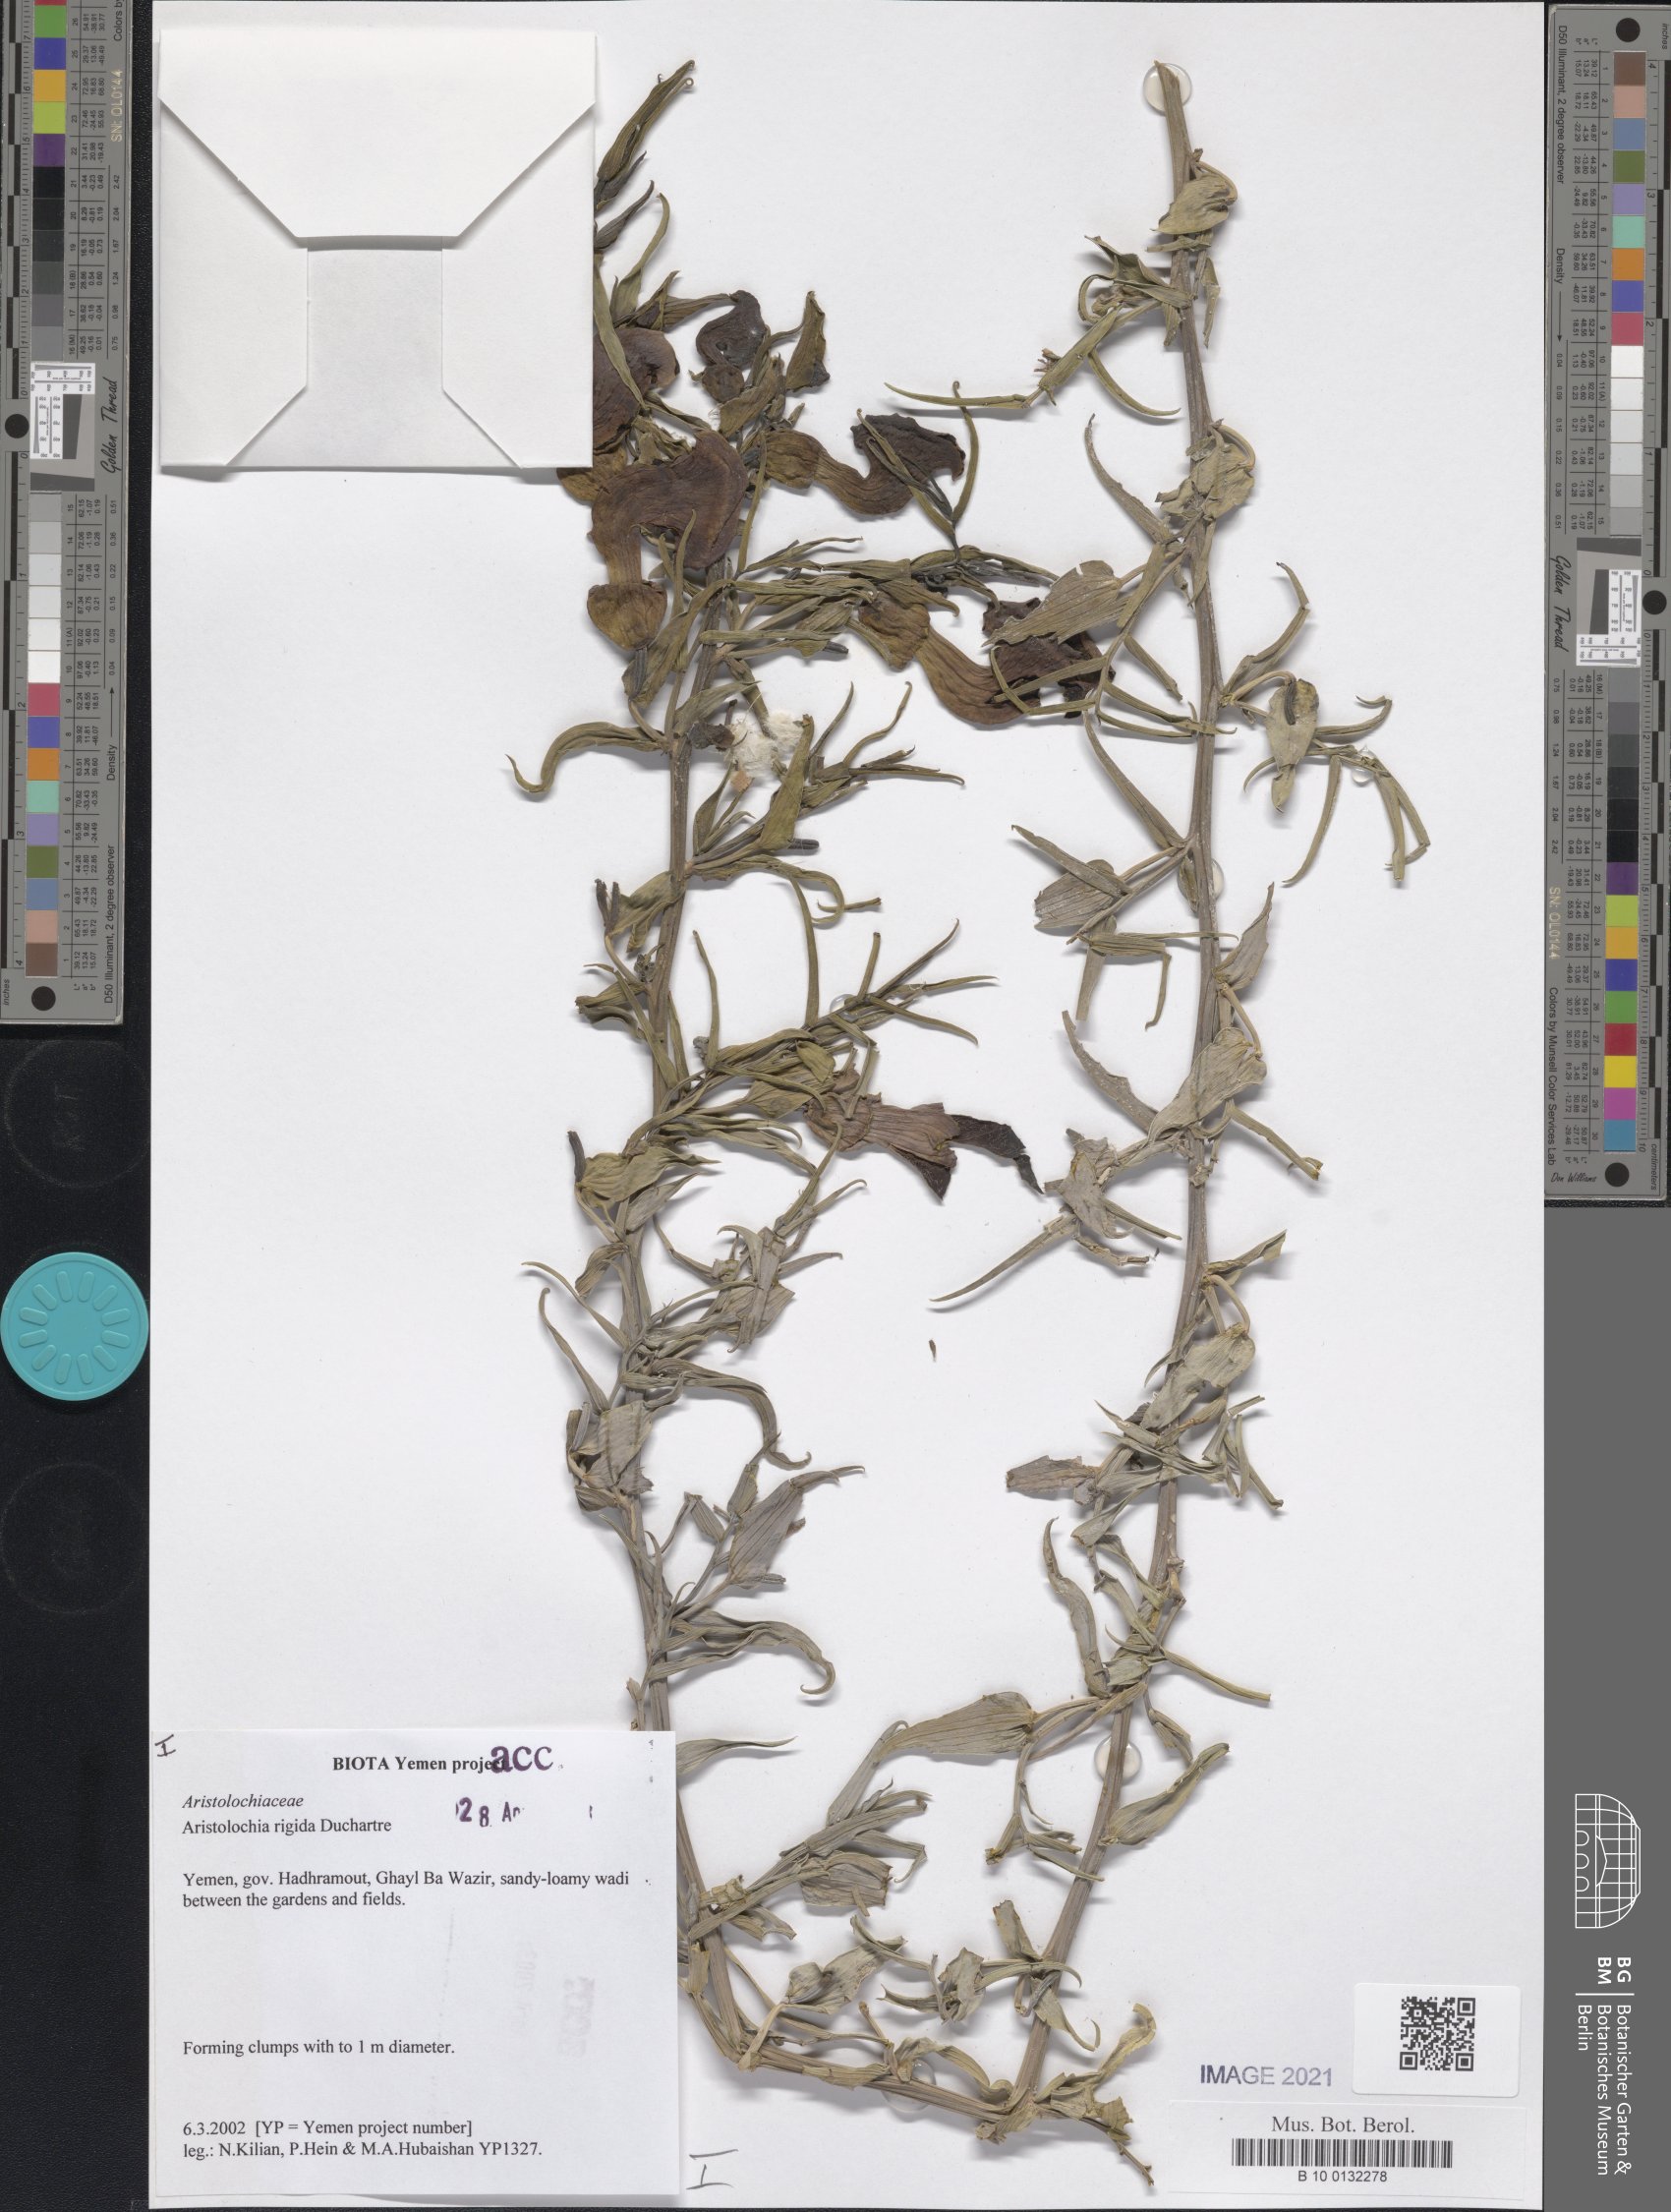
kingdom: Plantae
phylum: Tracheophyta
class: Magnoliopsida
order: Piperales
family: Aristolochiaceae
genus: Aristolochia
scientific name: Aristolochia rigida
